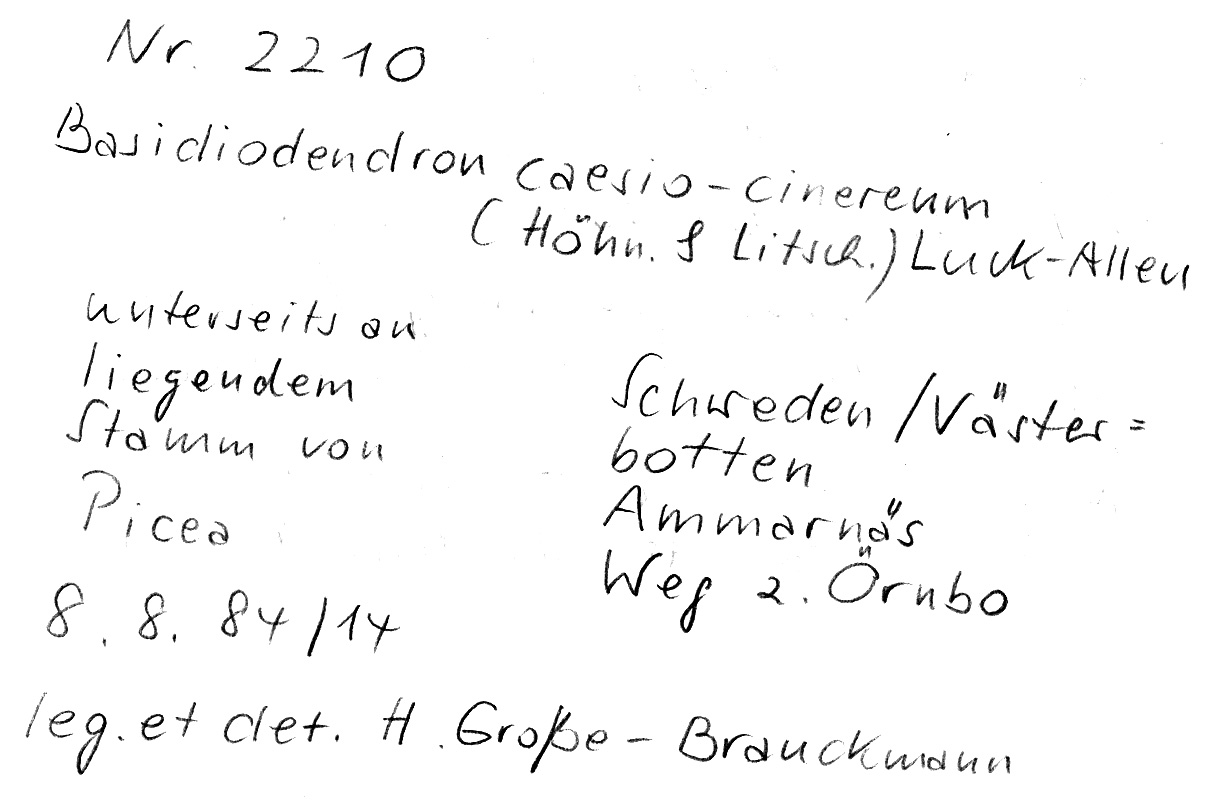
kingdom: Plantae
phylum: Tracheophyta
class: Pinopsida
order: Pinales
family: Pinaceae
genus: Picea
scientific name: Picea
